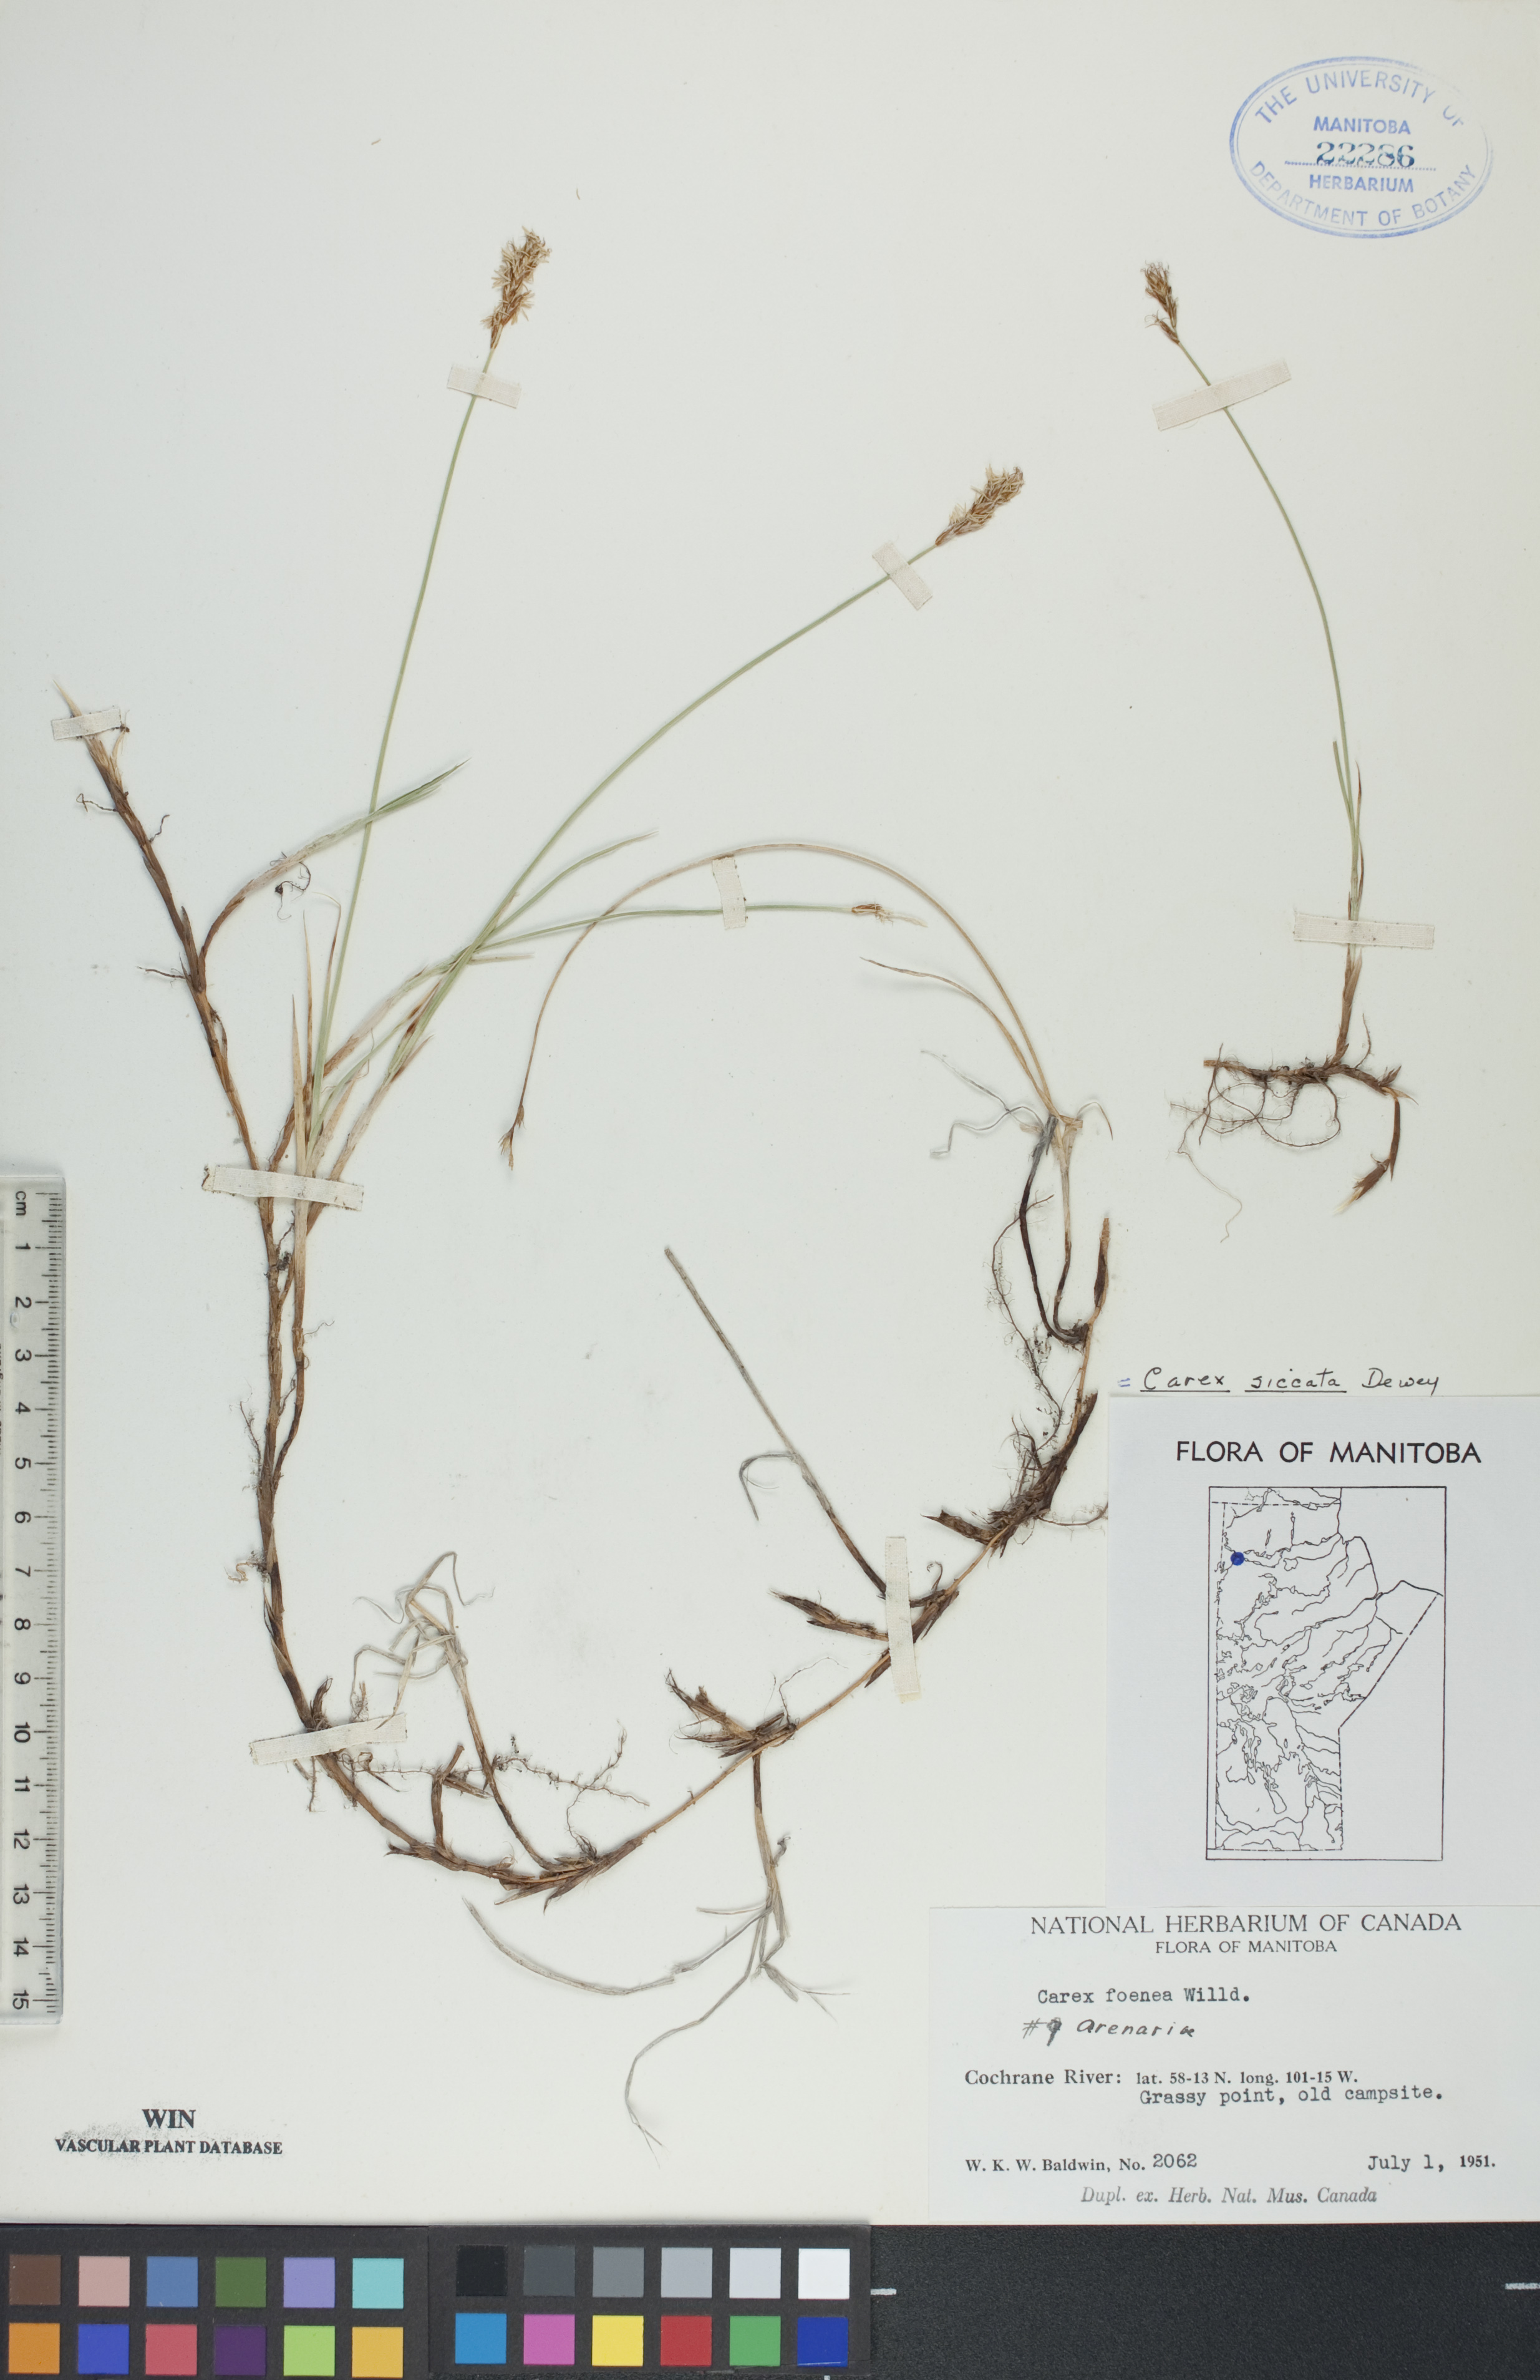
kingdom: Plantae
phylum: Tracheophyta
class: Liliopsida
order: Poales
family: Cyperaceae
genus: Carex
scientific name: Carex siccata
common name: Dry sedge
